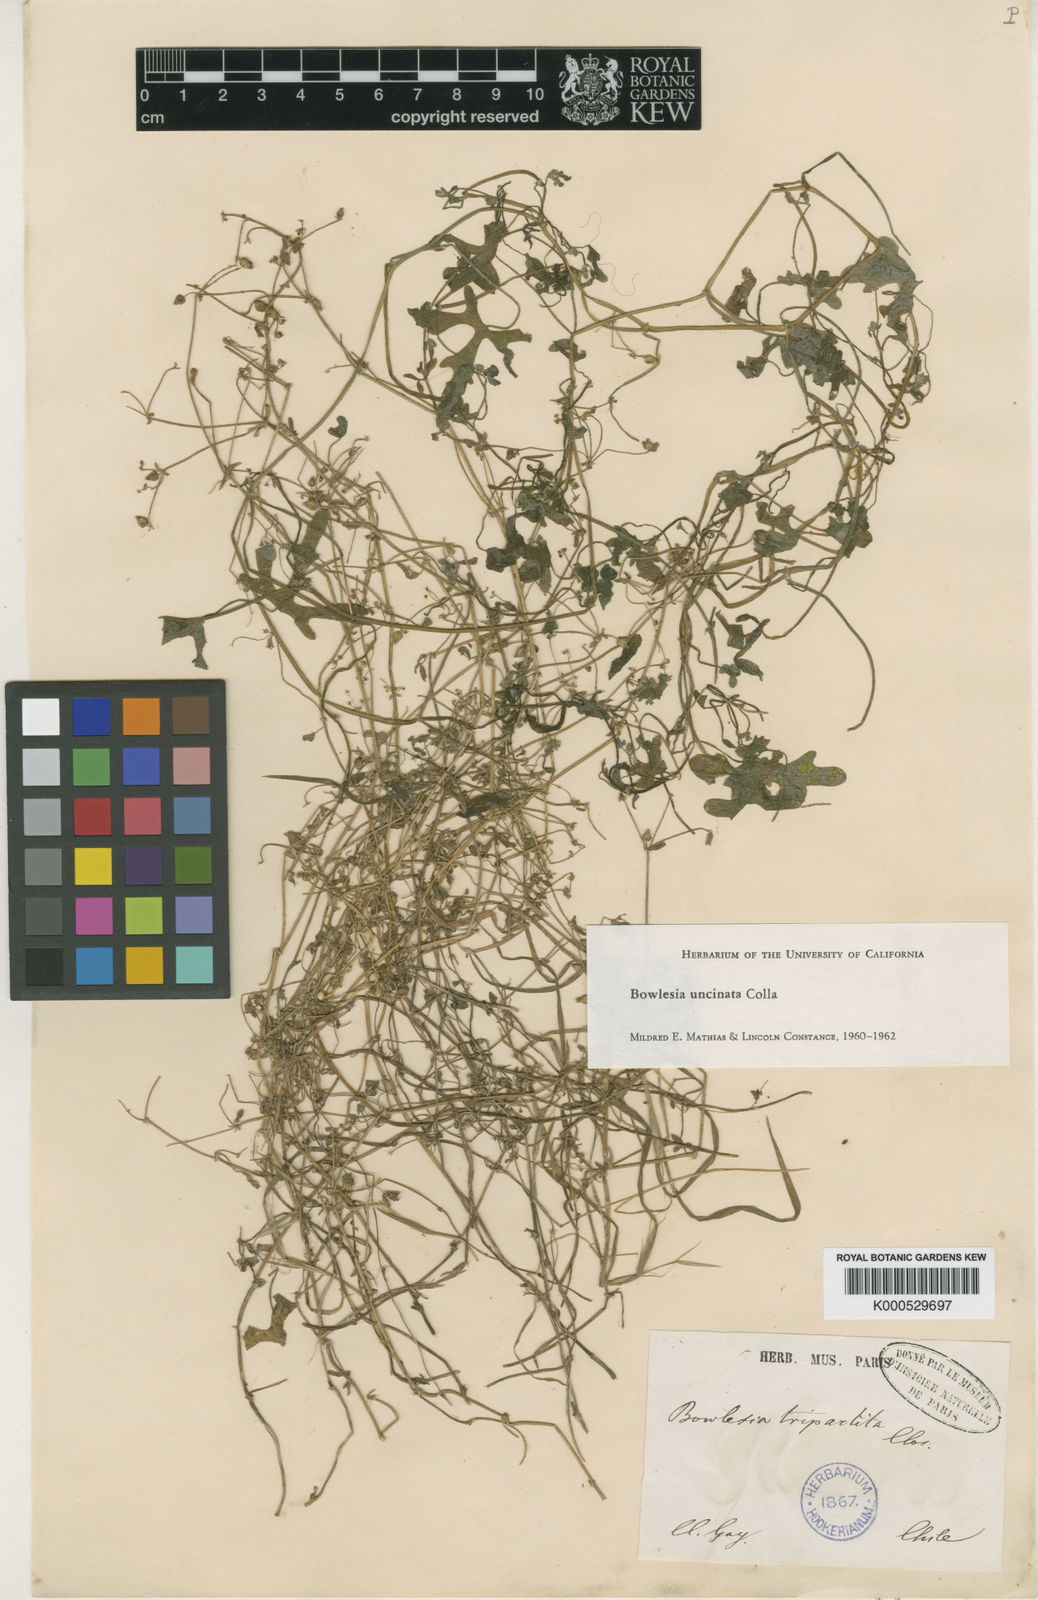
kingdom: Plantae
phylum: Tracheophyta
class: Magnoliopsida
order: Apiales
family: Apiaceae
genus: Bowlesia
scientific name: Bowlesia uncinata
